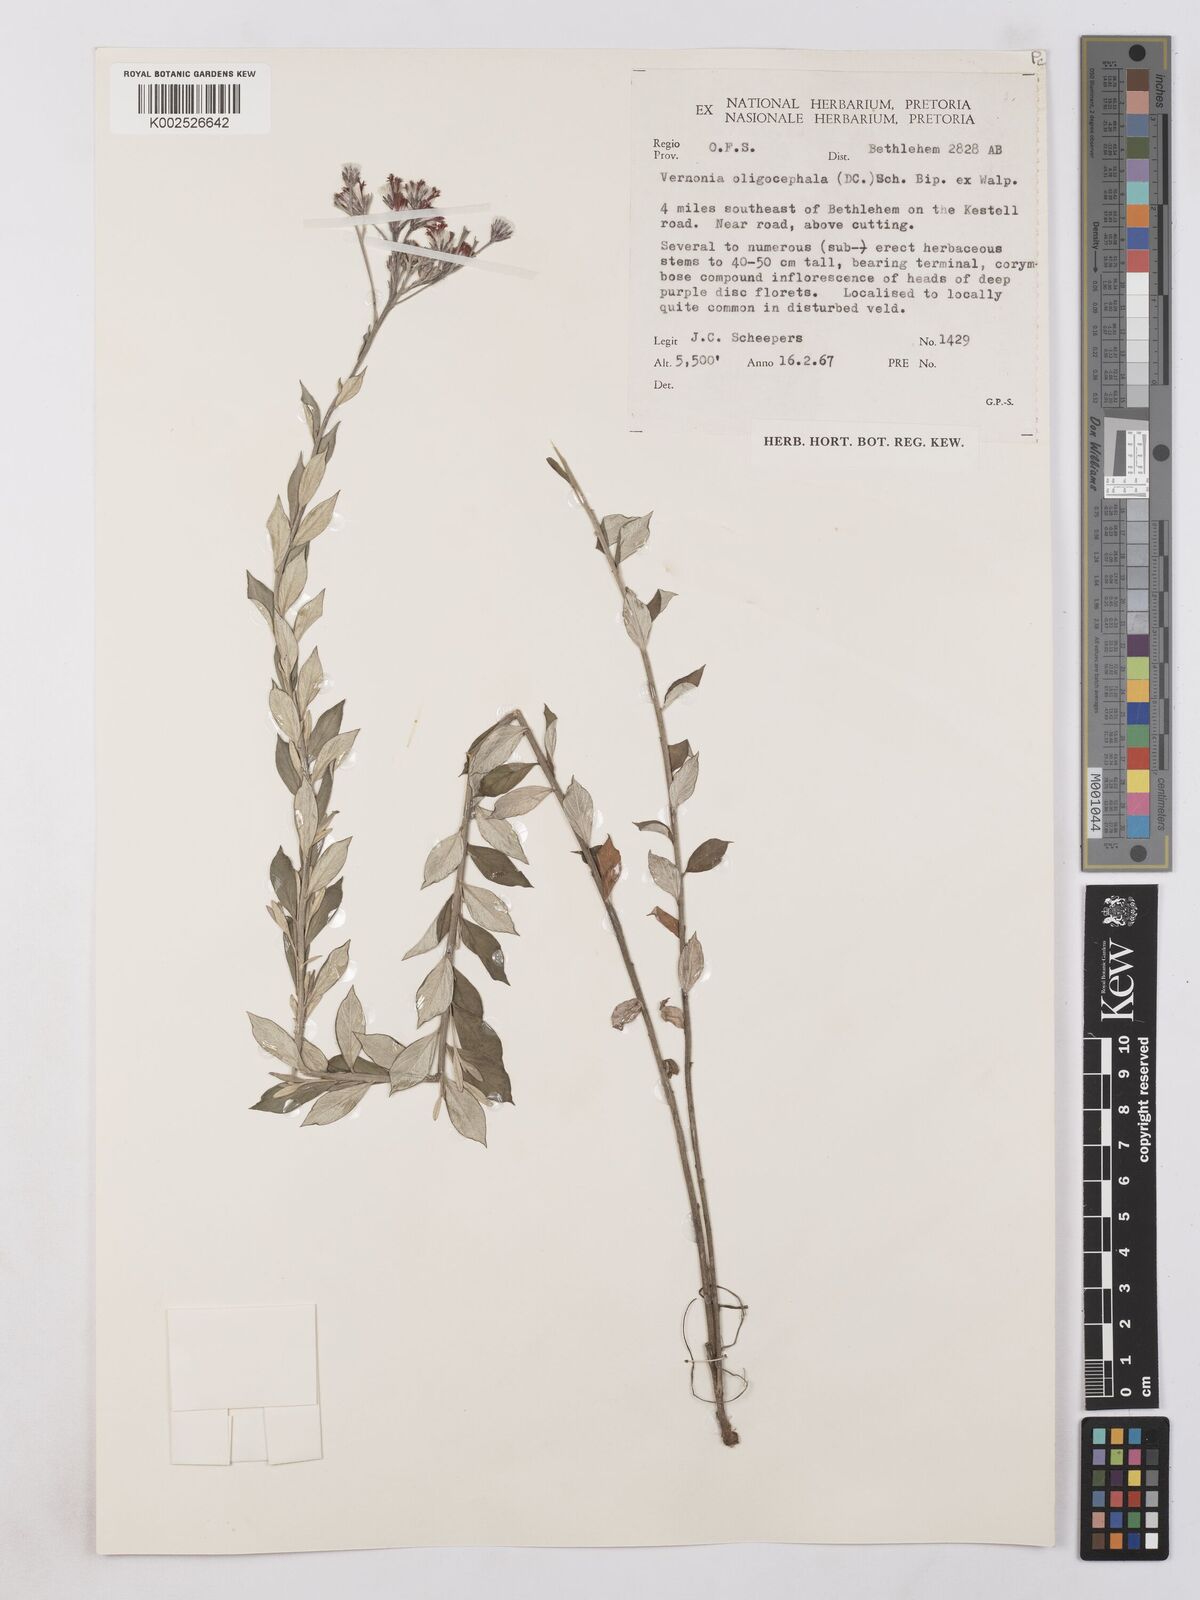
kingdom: Plantae
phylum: Tracheophyta
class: Magnoliopsida
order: Asterales
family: Asteraceae
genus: Hilliardiella
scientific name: Hilliardiella oligocephala
